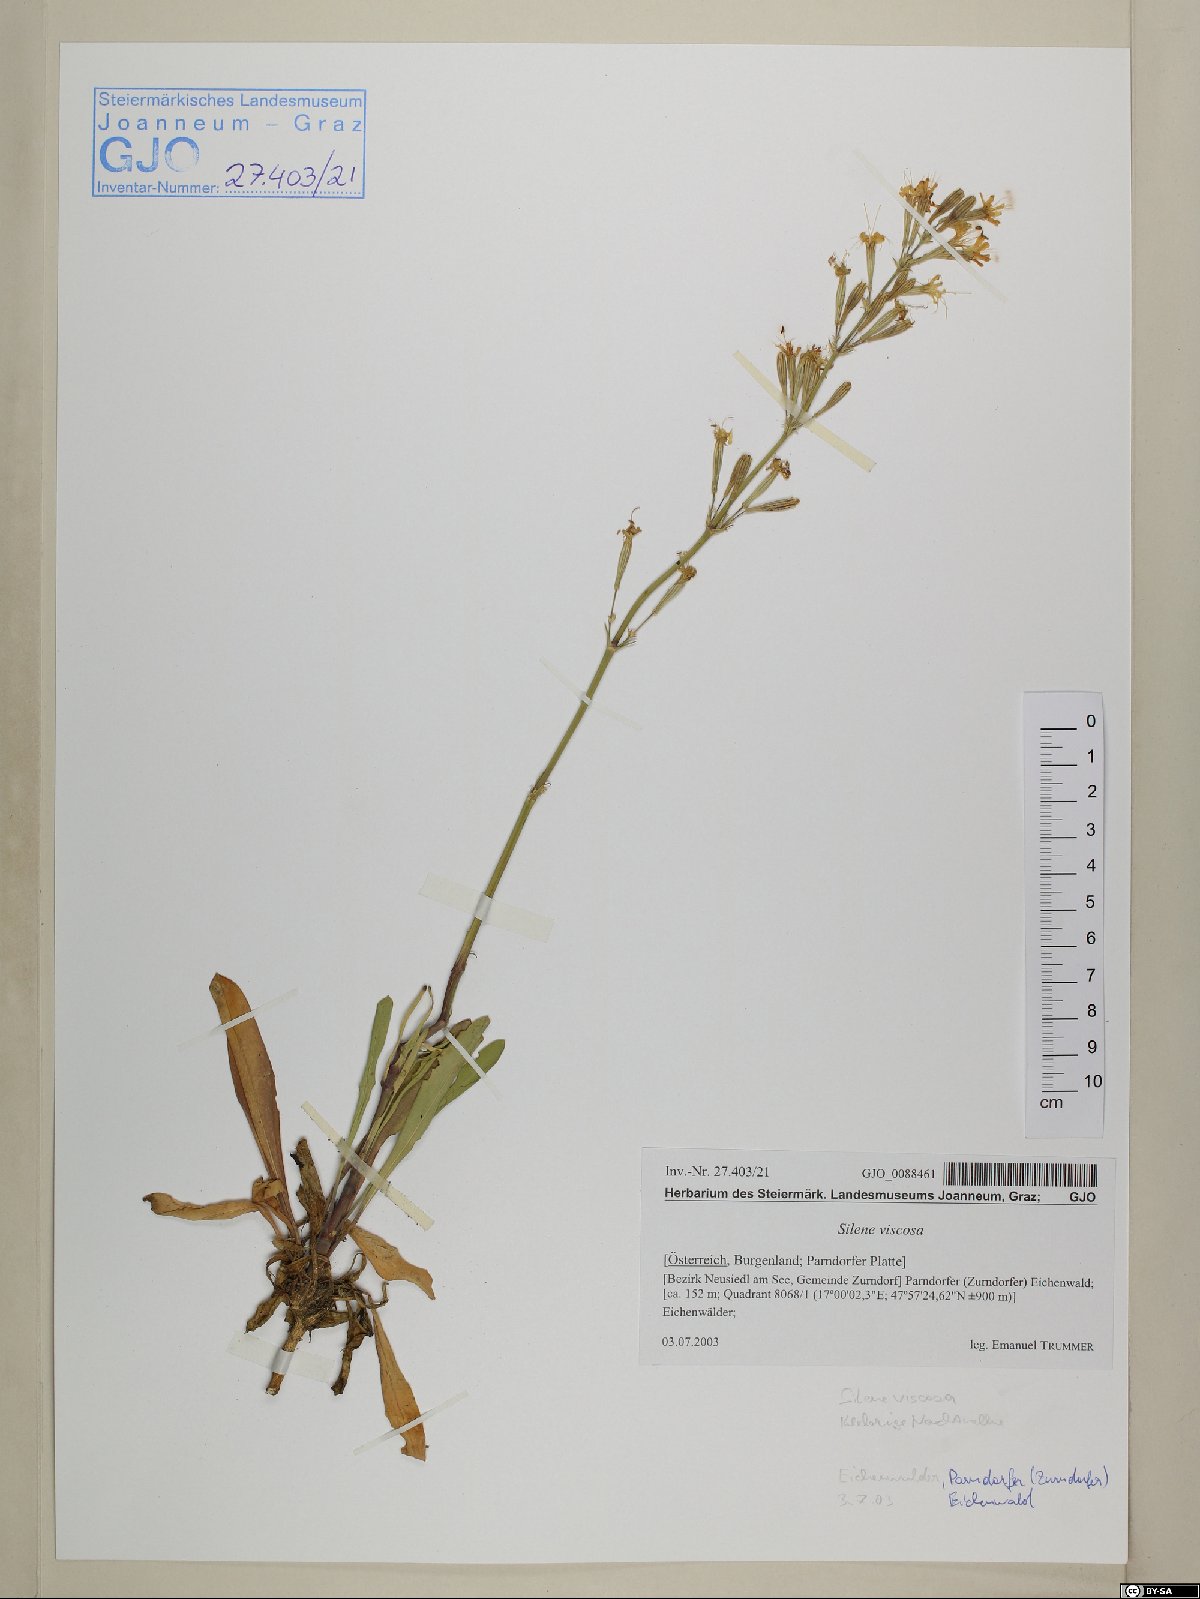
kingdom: Plantae
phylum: Tracheophyta
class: Magnoliopsida
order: Caryophyllales
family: Caryophyllaceae
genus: Silene
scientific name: Silene viscosa
